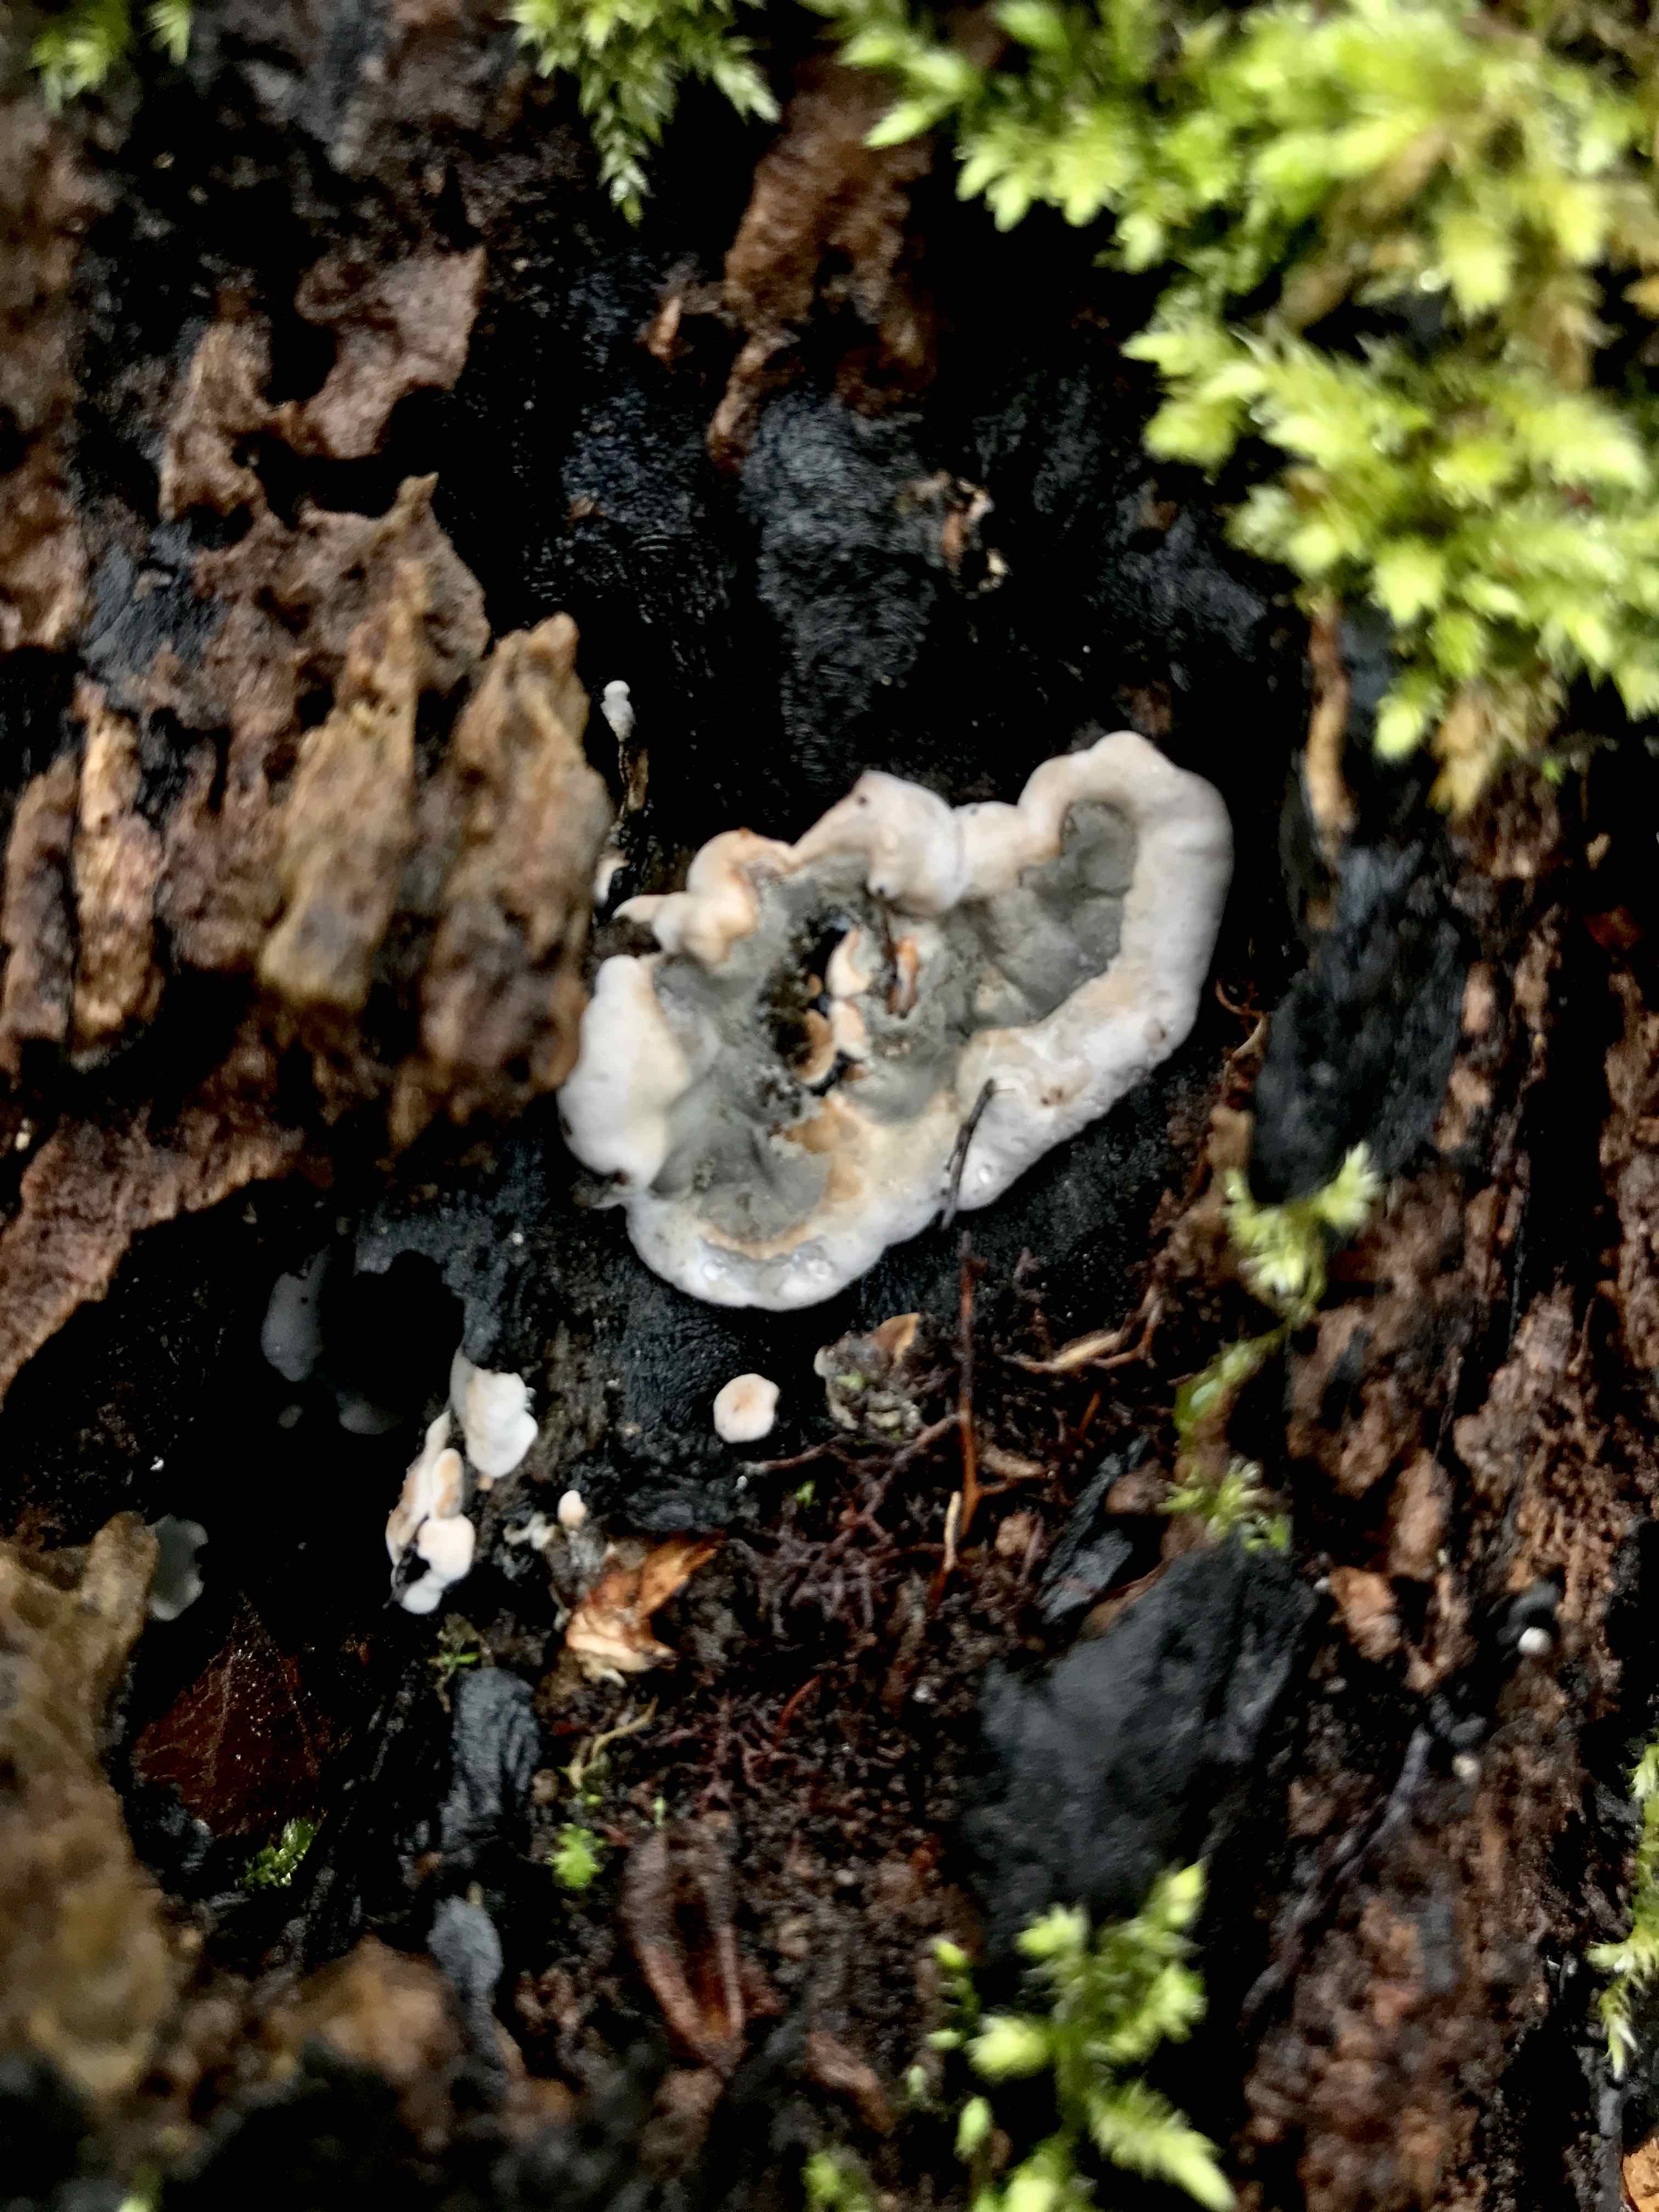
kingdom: Fungi
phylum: Ascomycota
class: Sordariomycetes
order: Xylariales
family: Xylariaceae
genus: Kretzschmaria
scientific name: Kretzschmaria deusta
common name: stor kulsvamp
